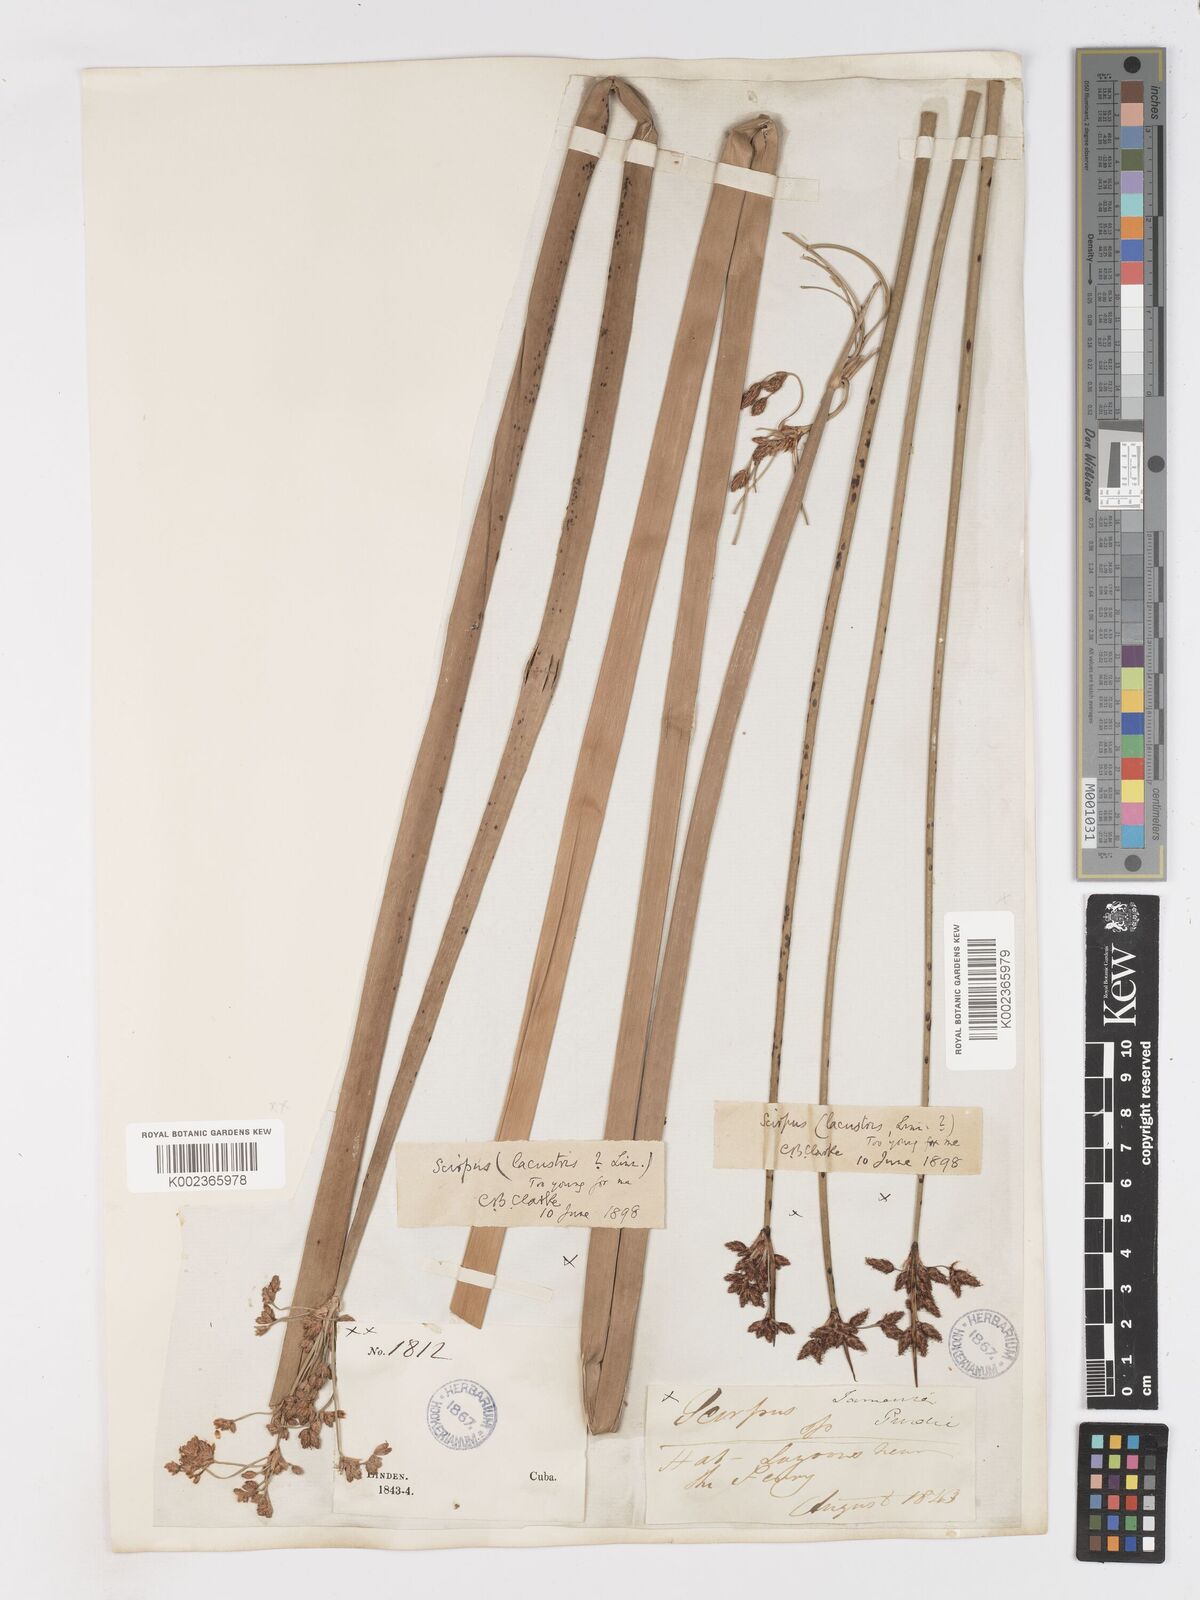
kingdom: Plantae
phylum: Tracheophyta
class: Liliopsida
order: Poales
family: Cyperaceae
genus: Schoenoplectus
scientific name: Schoenoplectus lacustris
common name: Common club-rush
